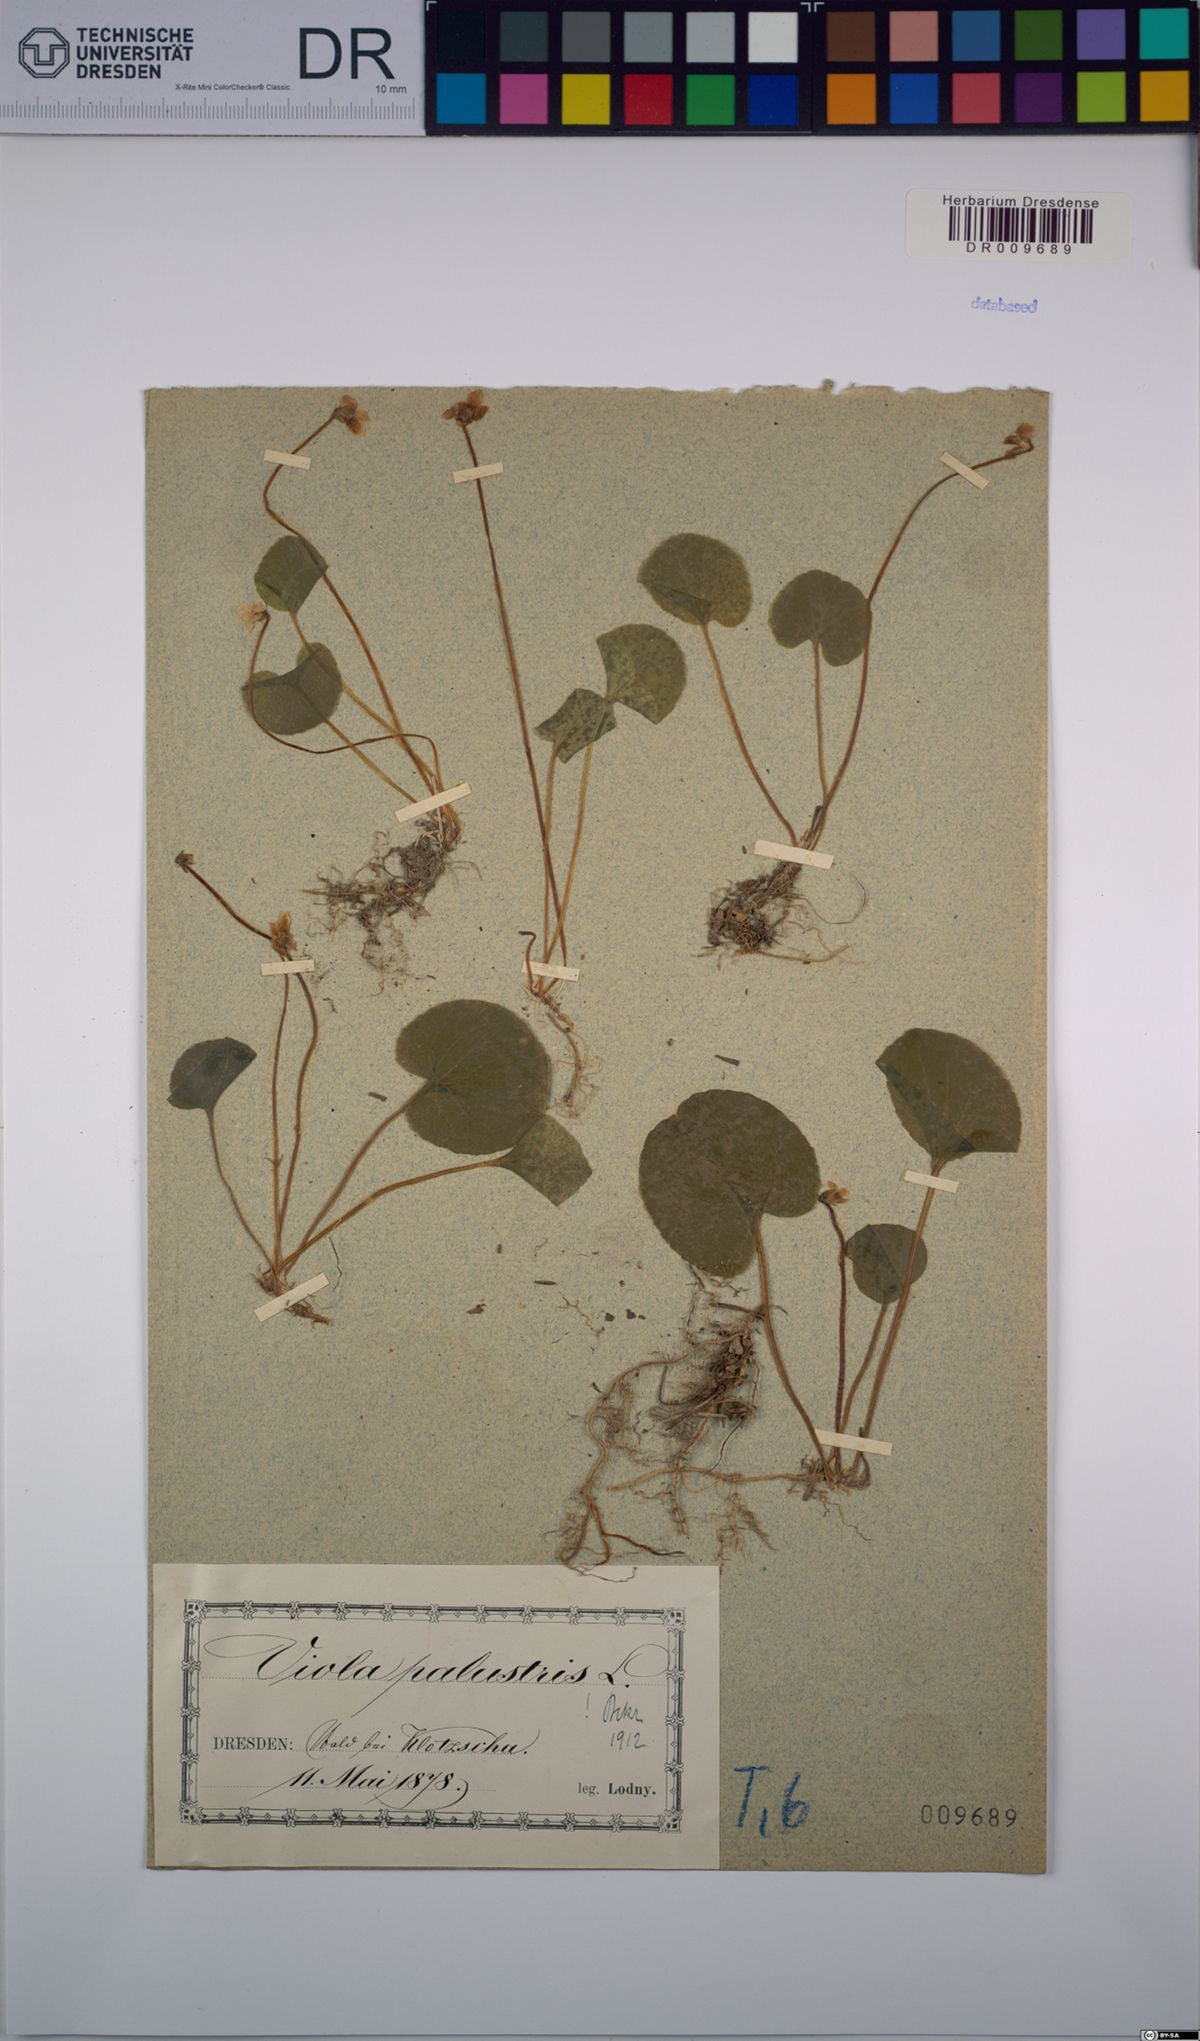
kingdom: Plantae
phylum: Tracheophyta
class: Magnoliopsida
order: Malpighiales
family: Violaceae
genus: Viola
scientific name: Viola palustris
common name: Marsh violet
